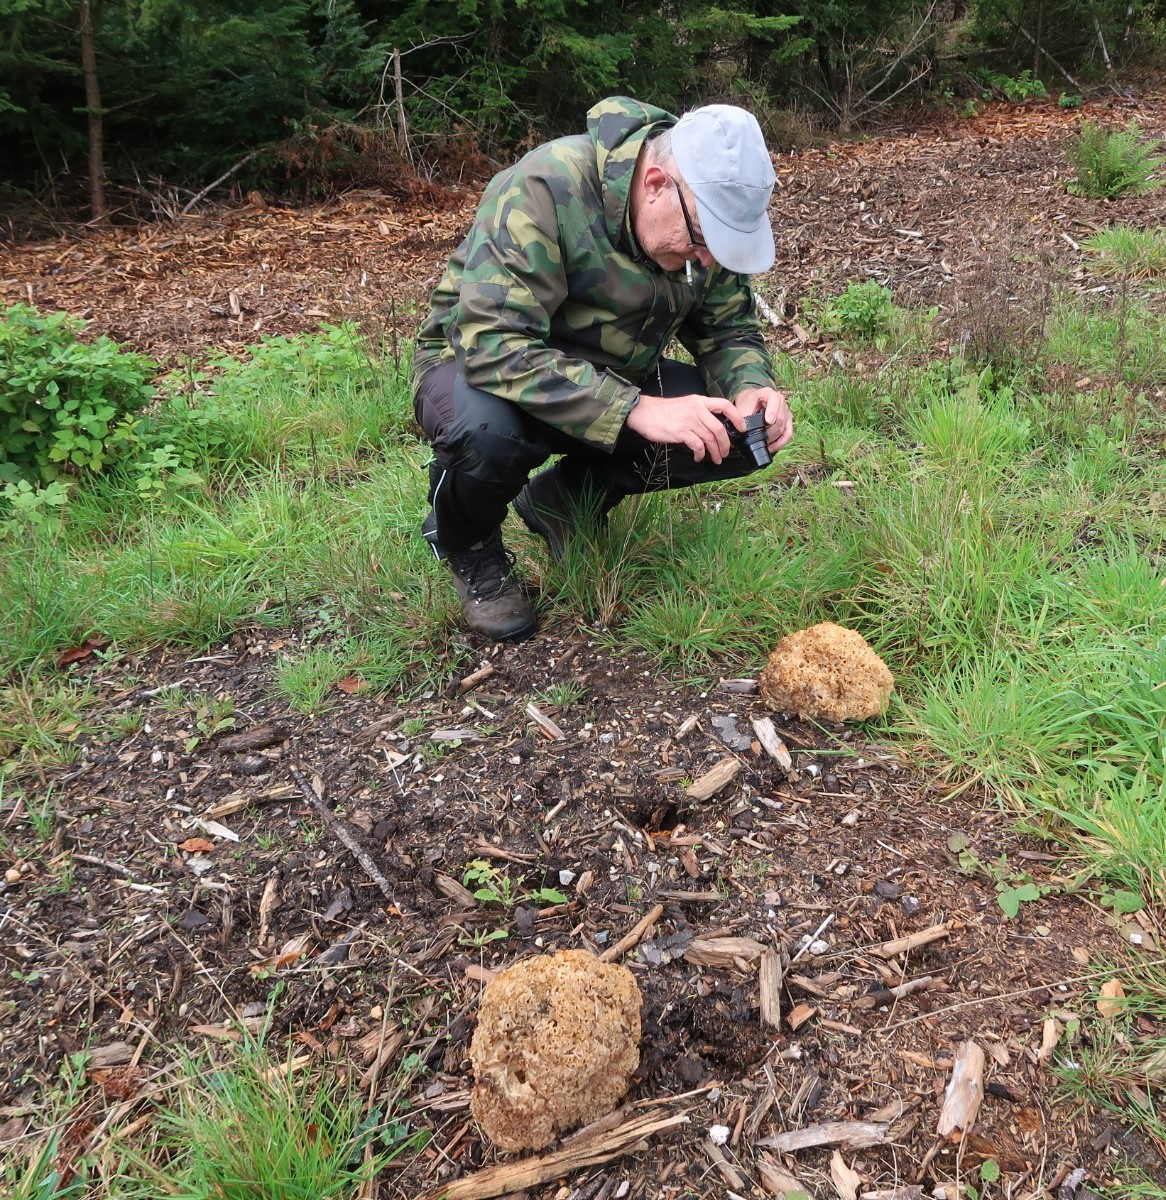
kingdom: Fungi
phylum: Basidiomycota
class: Agaricomycetes
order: Polyporales
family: Sparassidaceae
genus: Sparassis
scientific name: Sparassis crispa
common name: kruset blomkålssvamp
